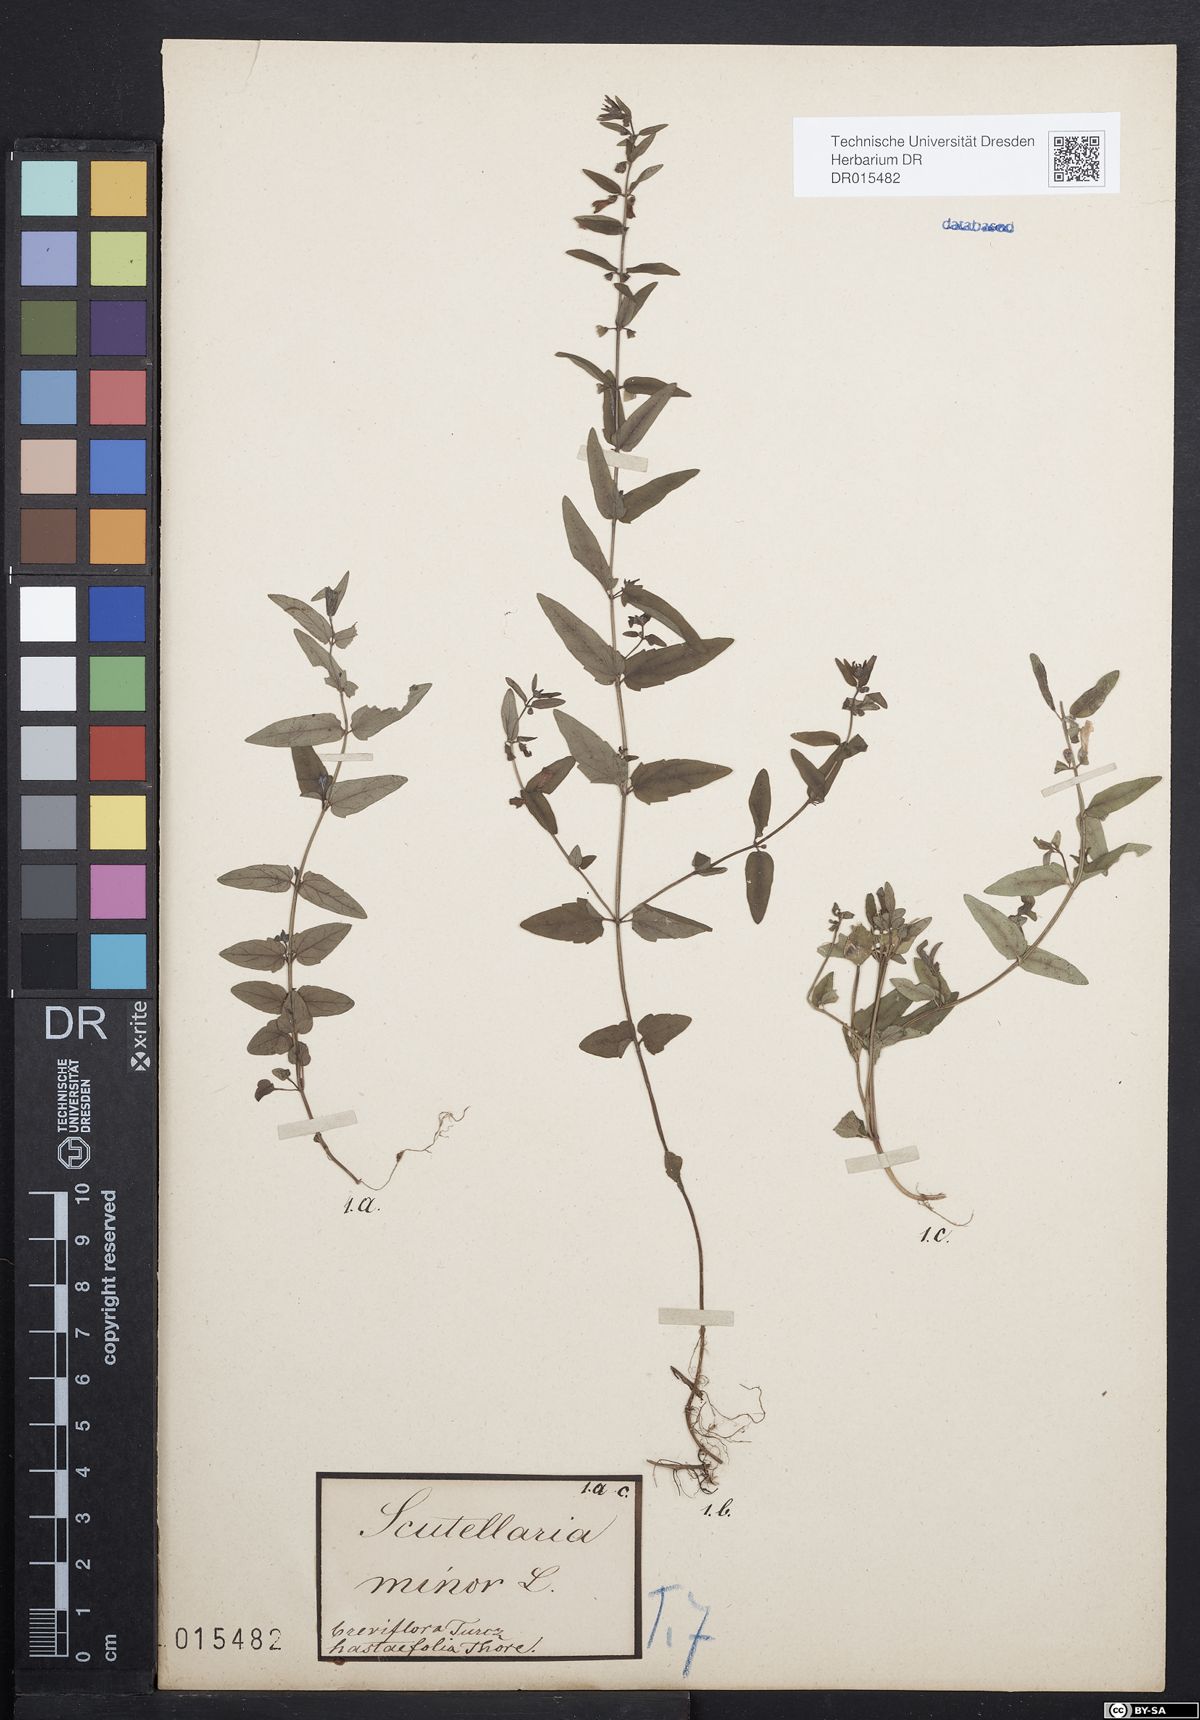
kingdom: Plantae
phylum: Tracheophyta
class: Magnoliopsida
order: Lamiales
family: Lamiaceae
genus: Scutellaria
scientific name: Scutellaria minor
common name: Lesser skullcap
